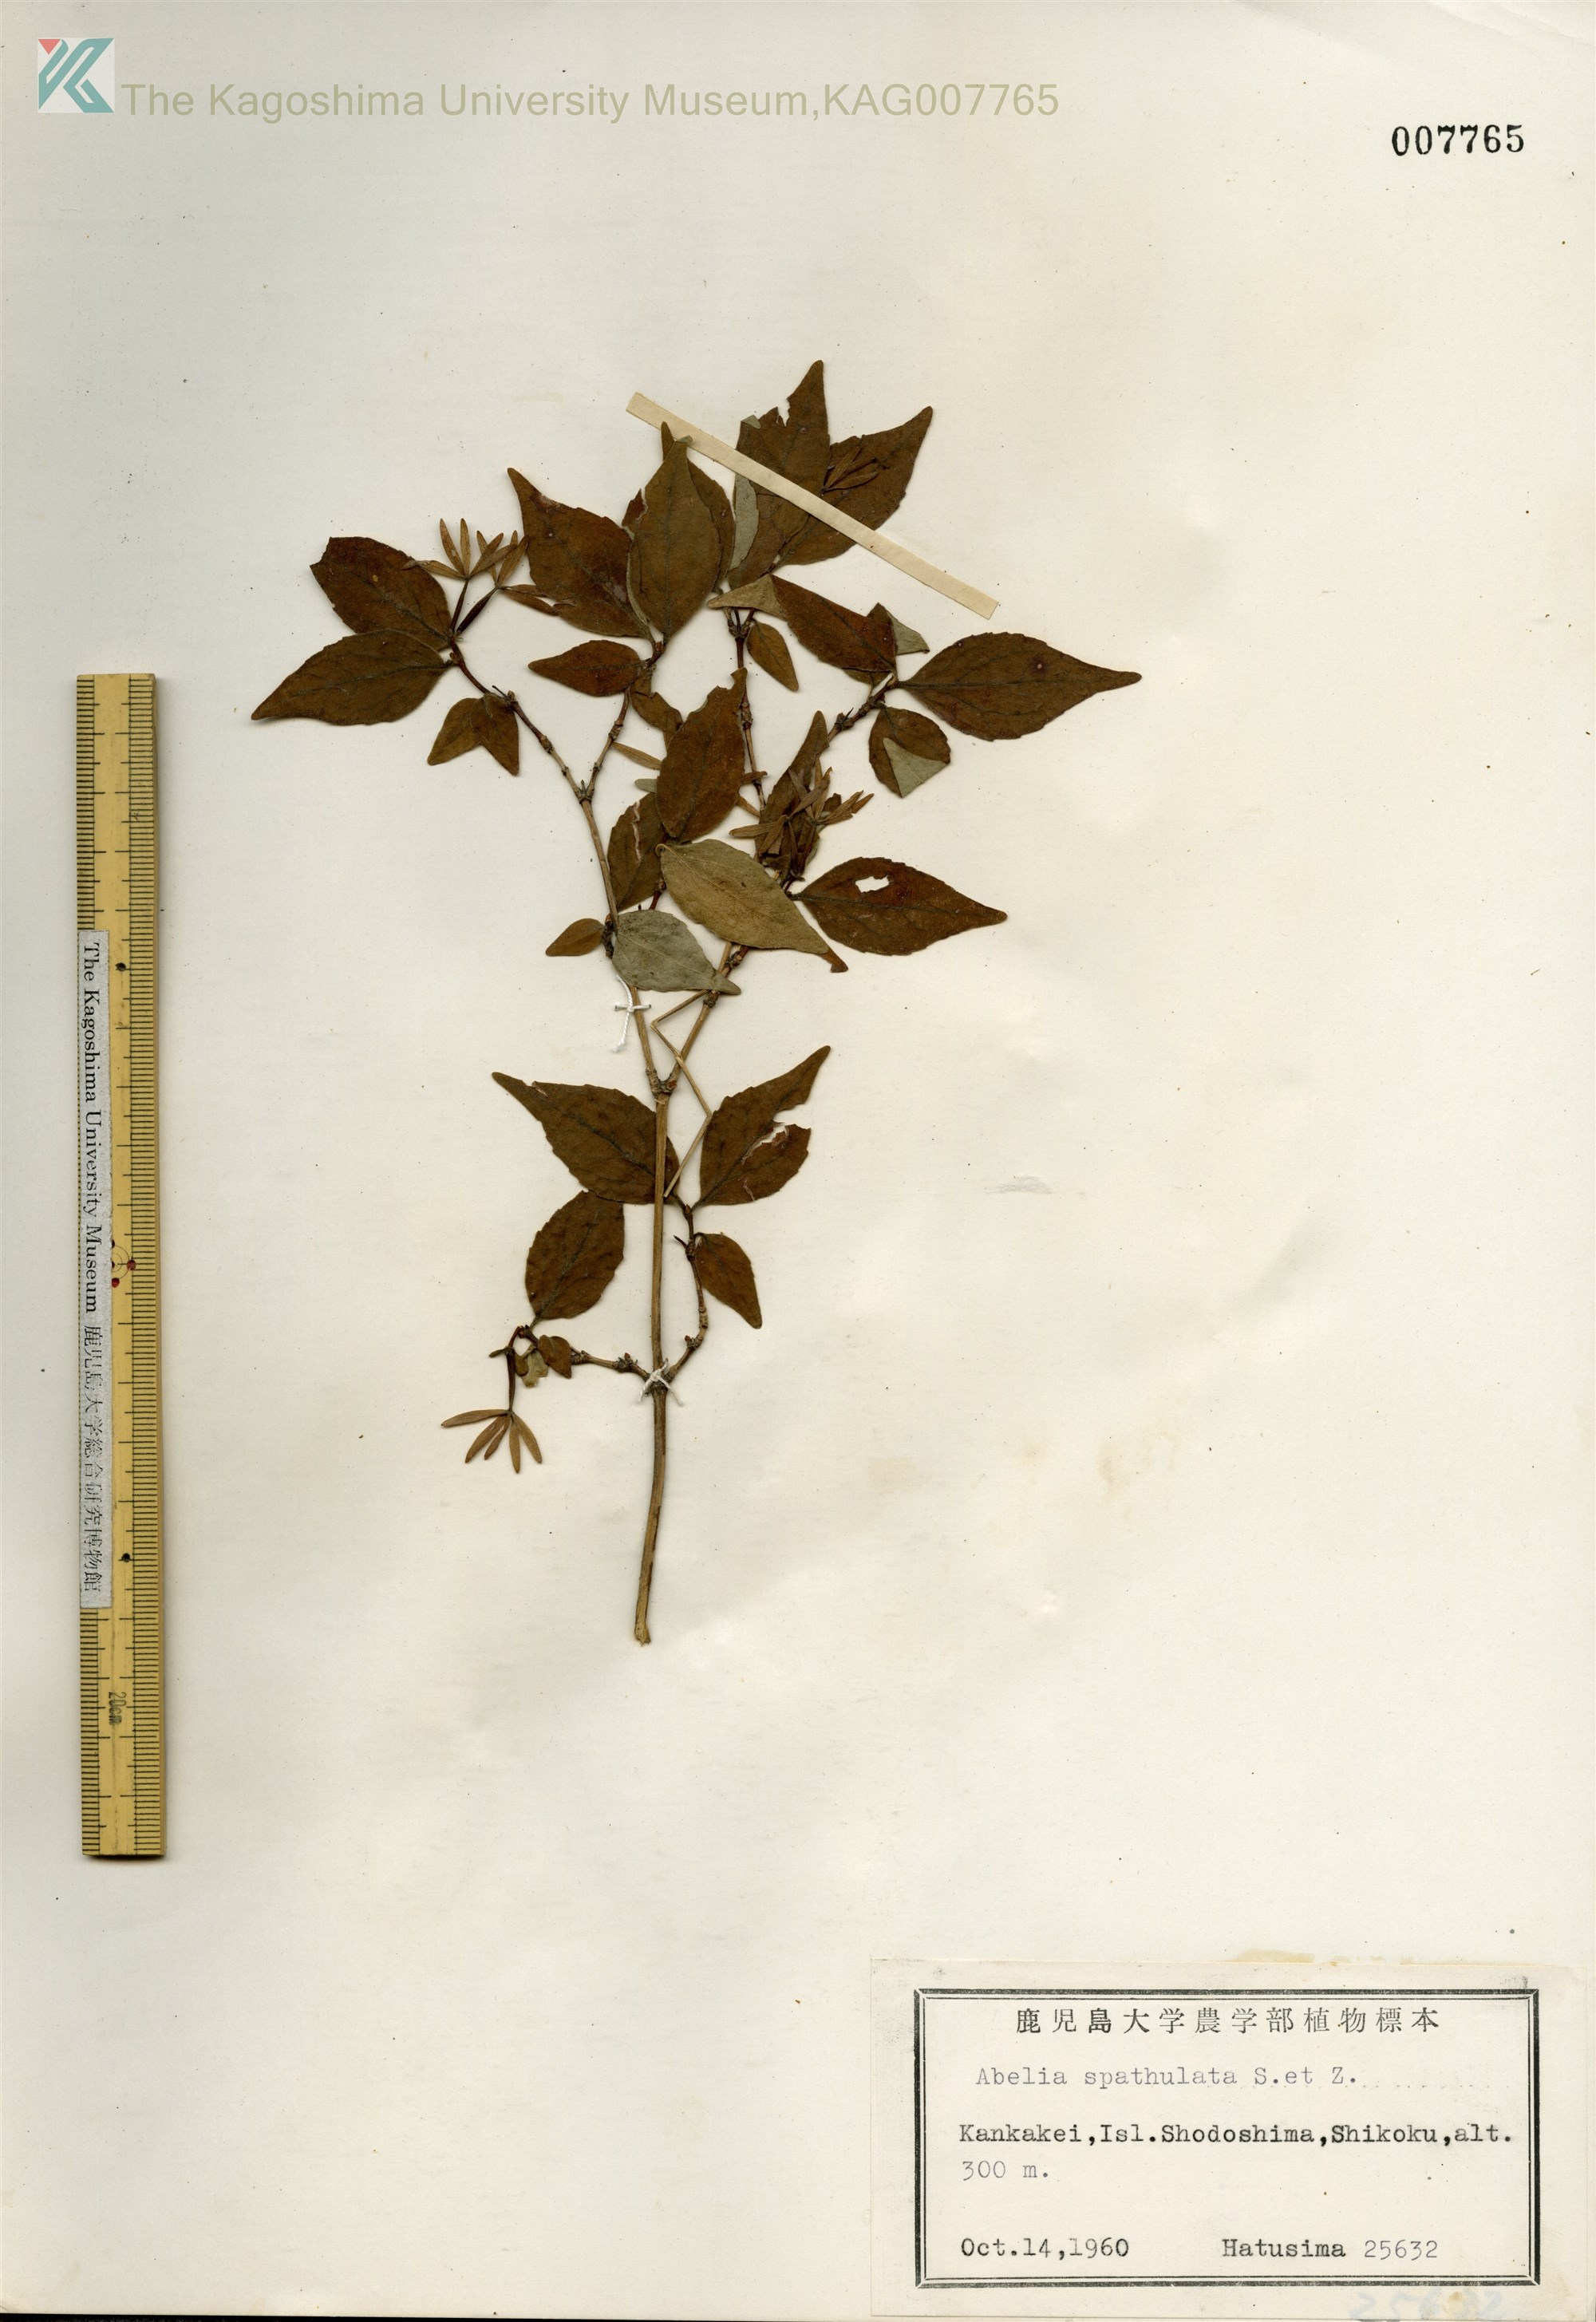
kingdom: Plantae
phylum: Tracheophyta
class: Magnoliopsida
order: Dipsacales
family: Caprifoliaceae
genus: Diabelia
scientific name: Diabelia spathulata
